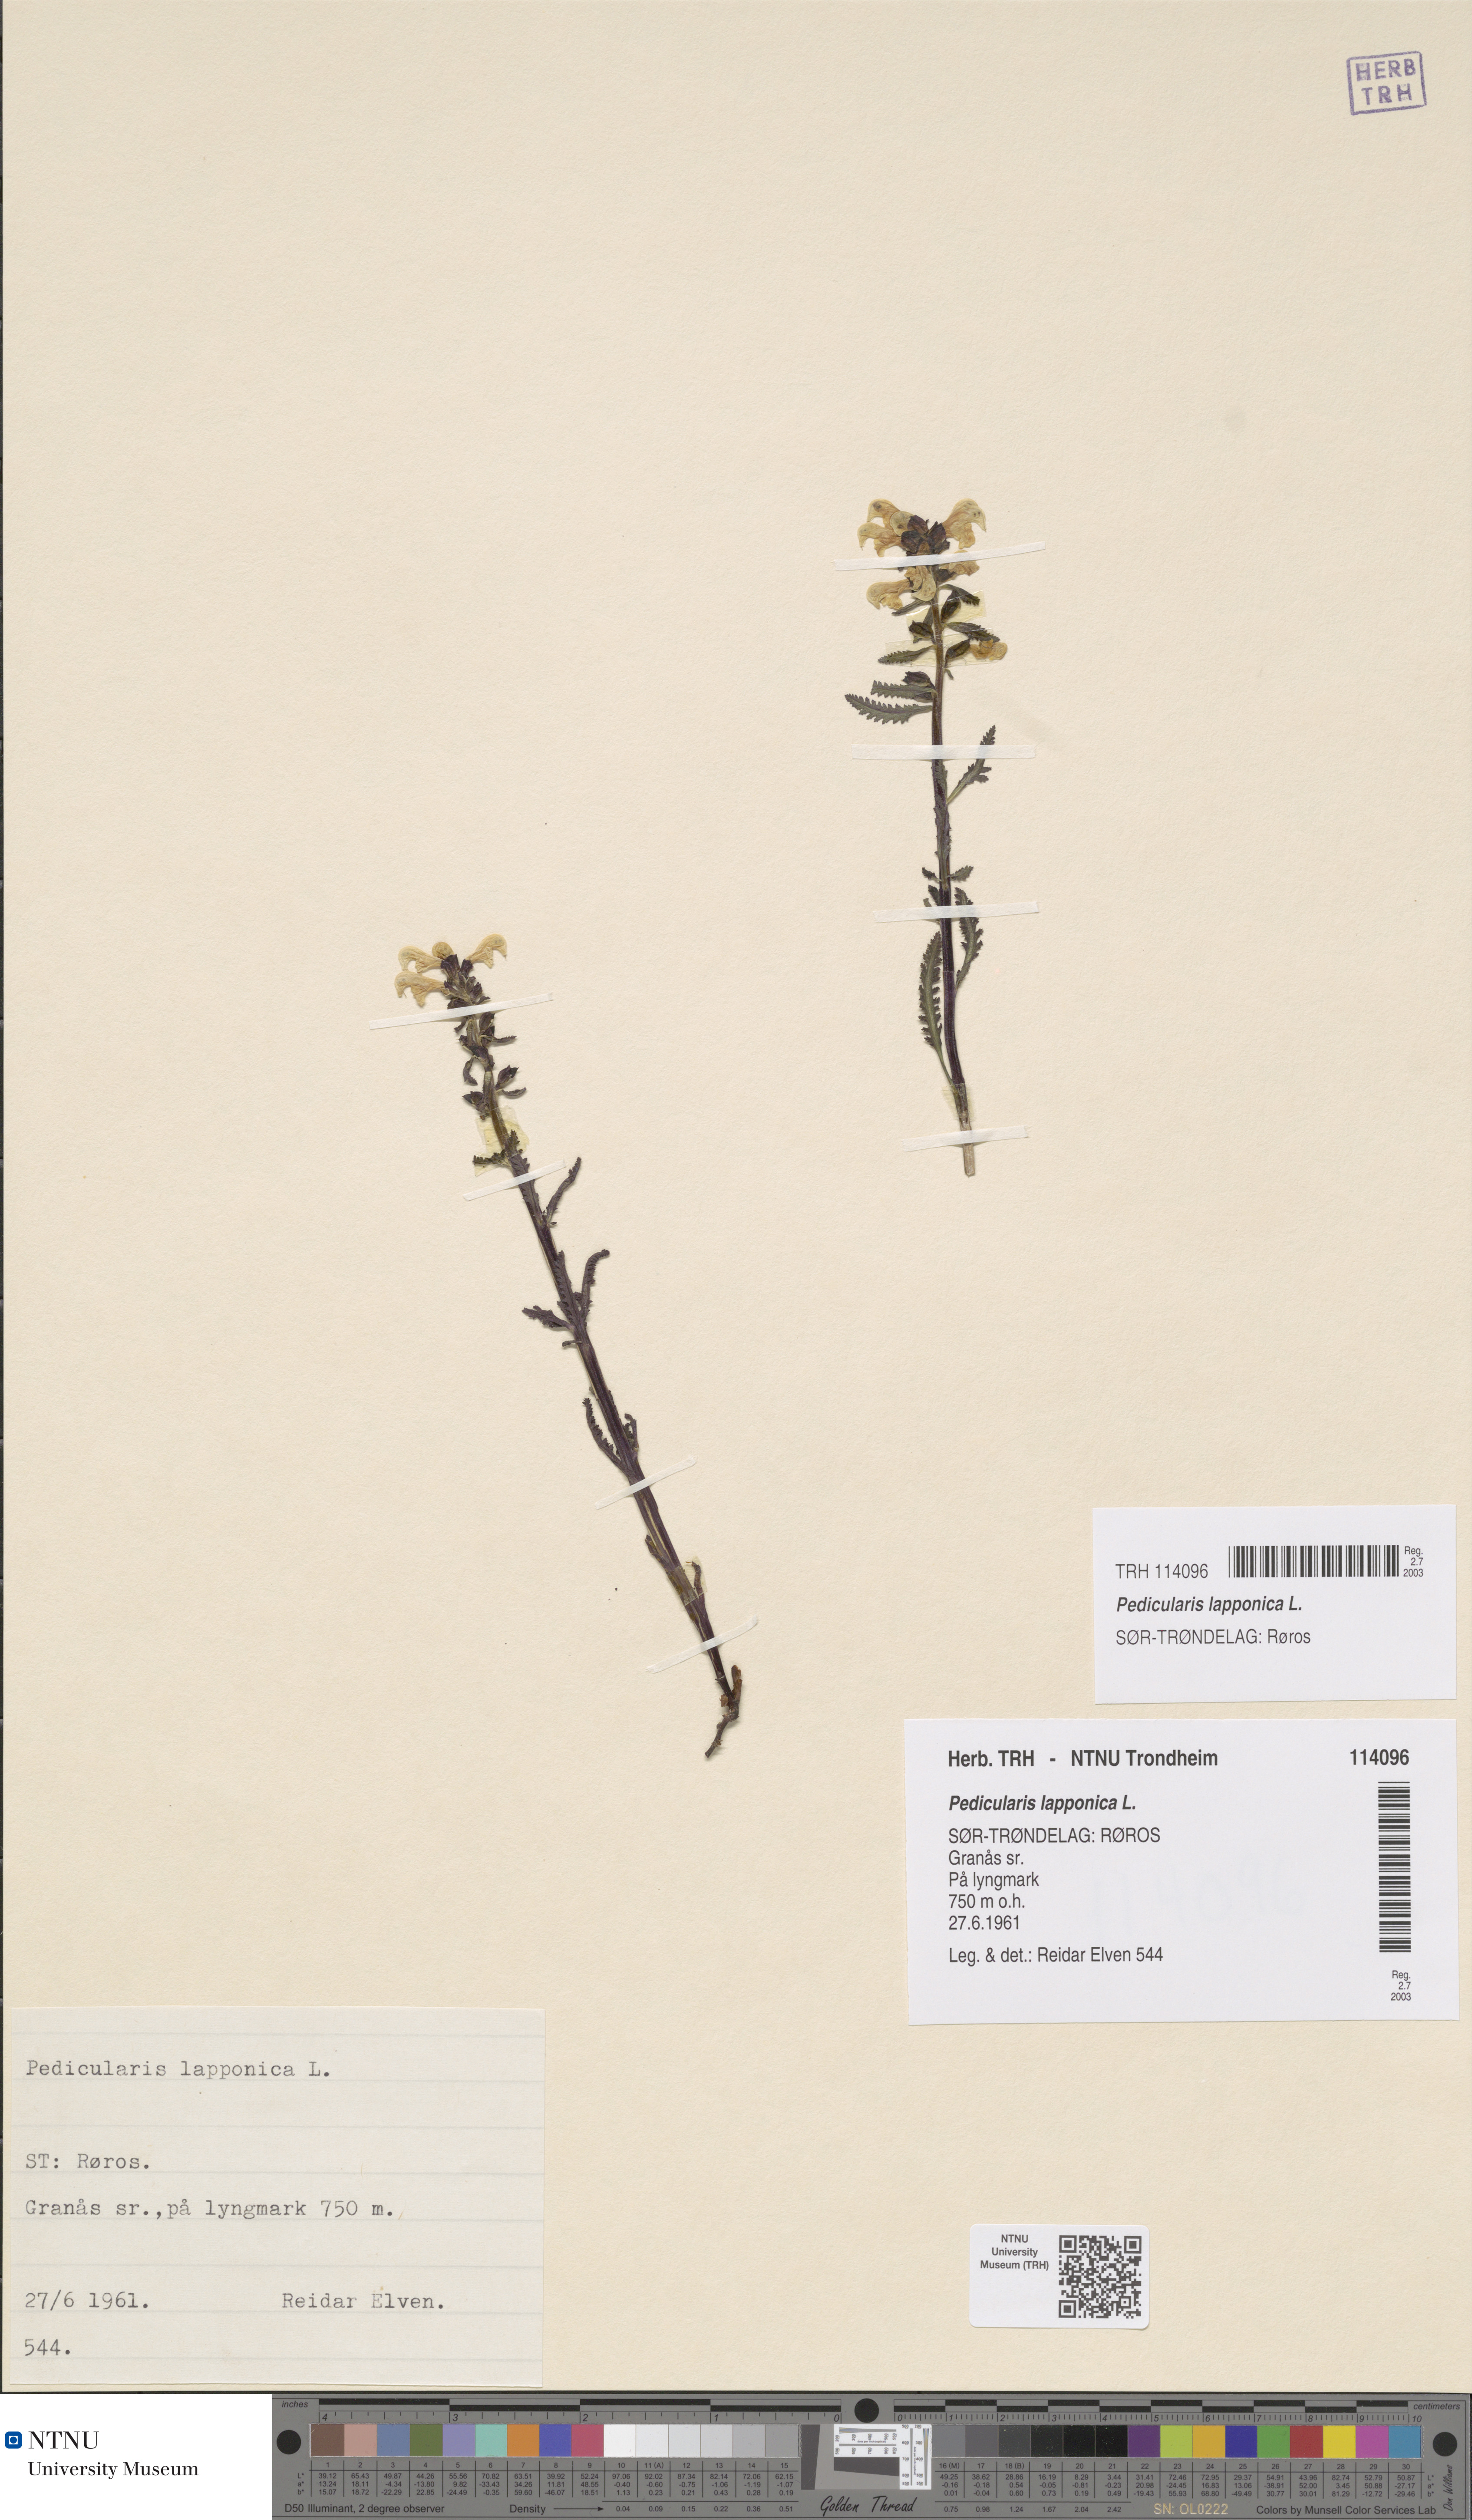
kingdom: Plantae
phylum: Tracheophyta
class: Magnoliopsida
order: Lamiales
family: Orobanchaceae
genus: Pedicularis
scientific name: Pedicularis lapponica
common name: Lapland lousewort
